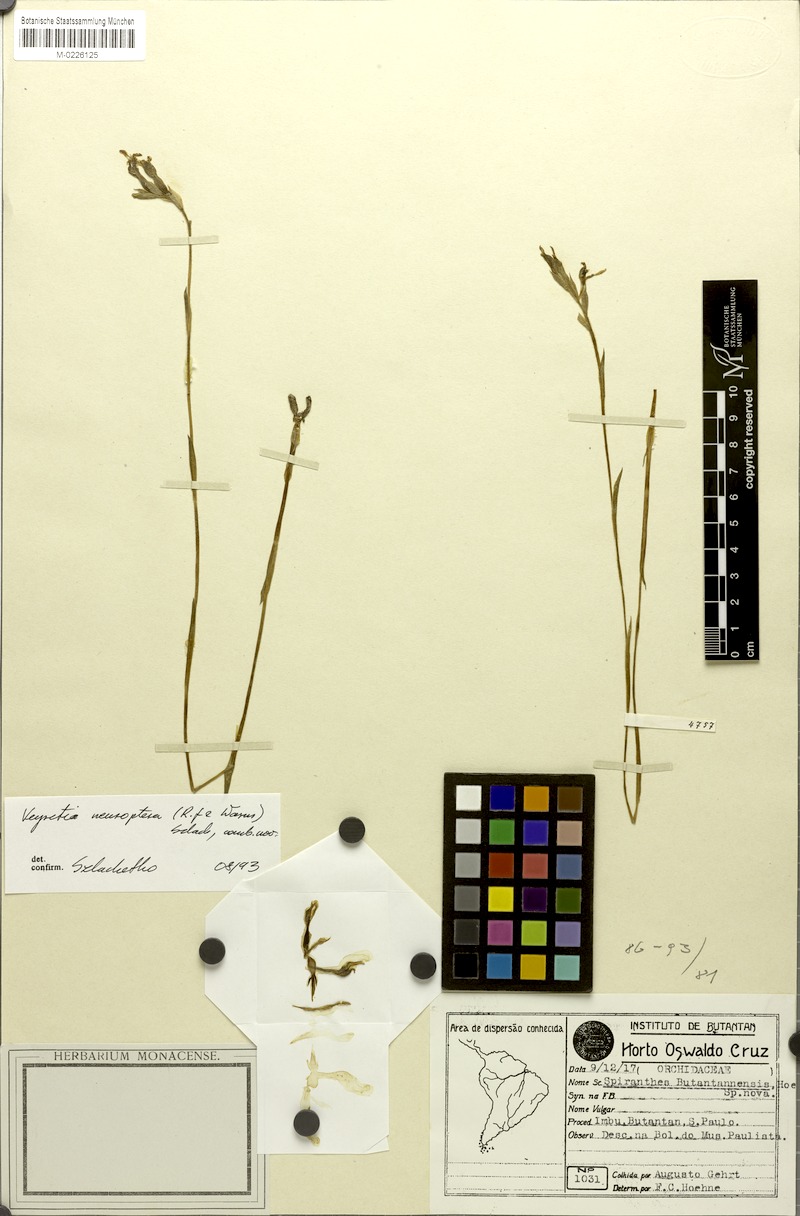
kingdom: Plantae
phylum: Tracheophyta
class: Liliopsida
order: Asparagales
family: Orchidaceae
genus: Veyretia
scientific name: Veyretia neuroptera
